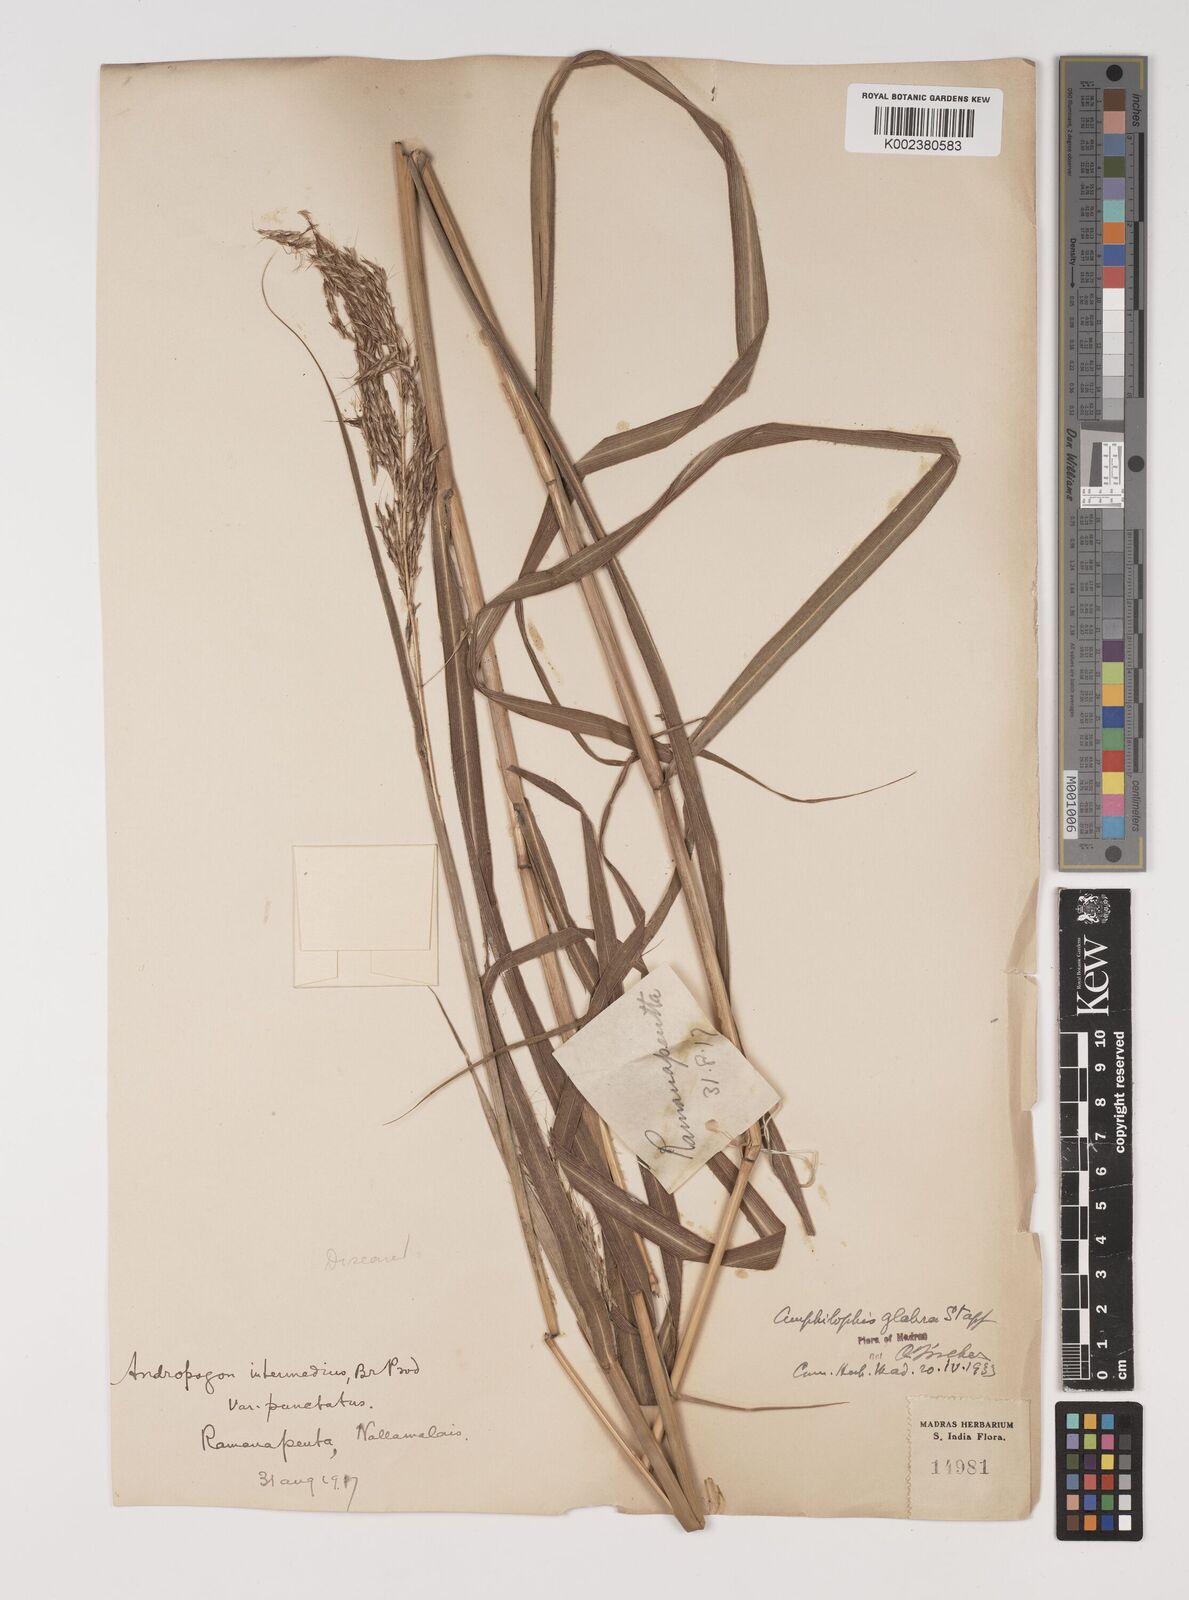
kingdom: Plantae
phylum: Tracheophyta
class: Liliopsida
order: Poales
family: Poaceae
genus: Bothriochloa
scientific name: Bothriochloa bladhii
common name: Caucasian bluestem
